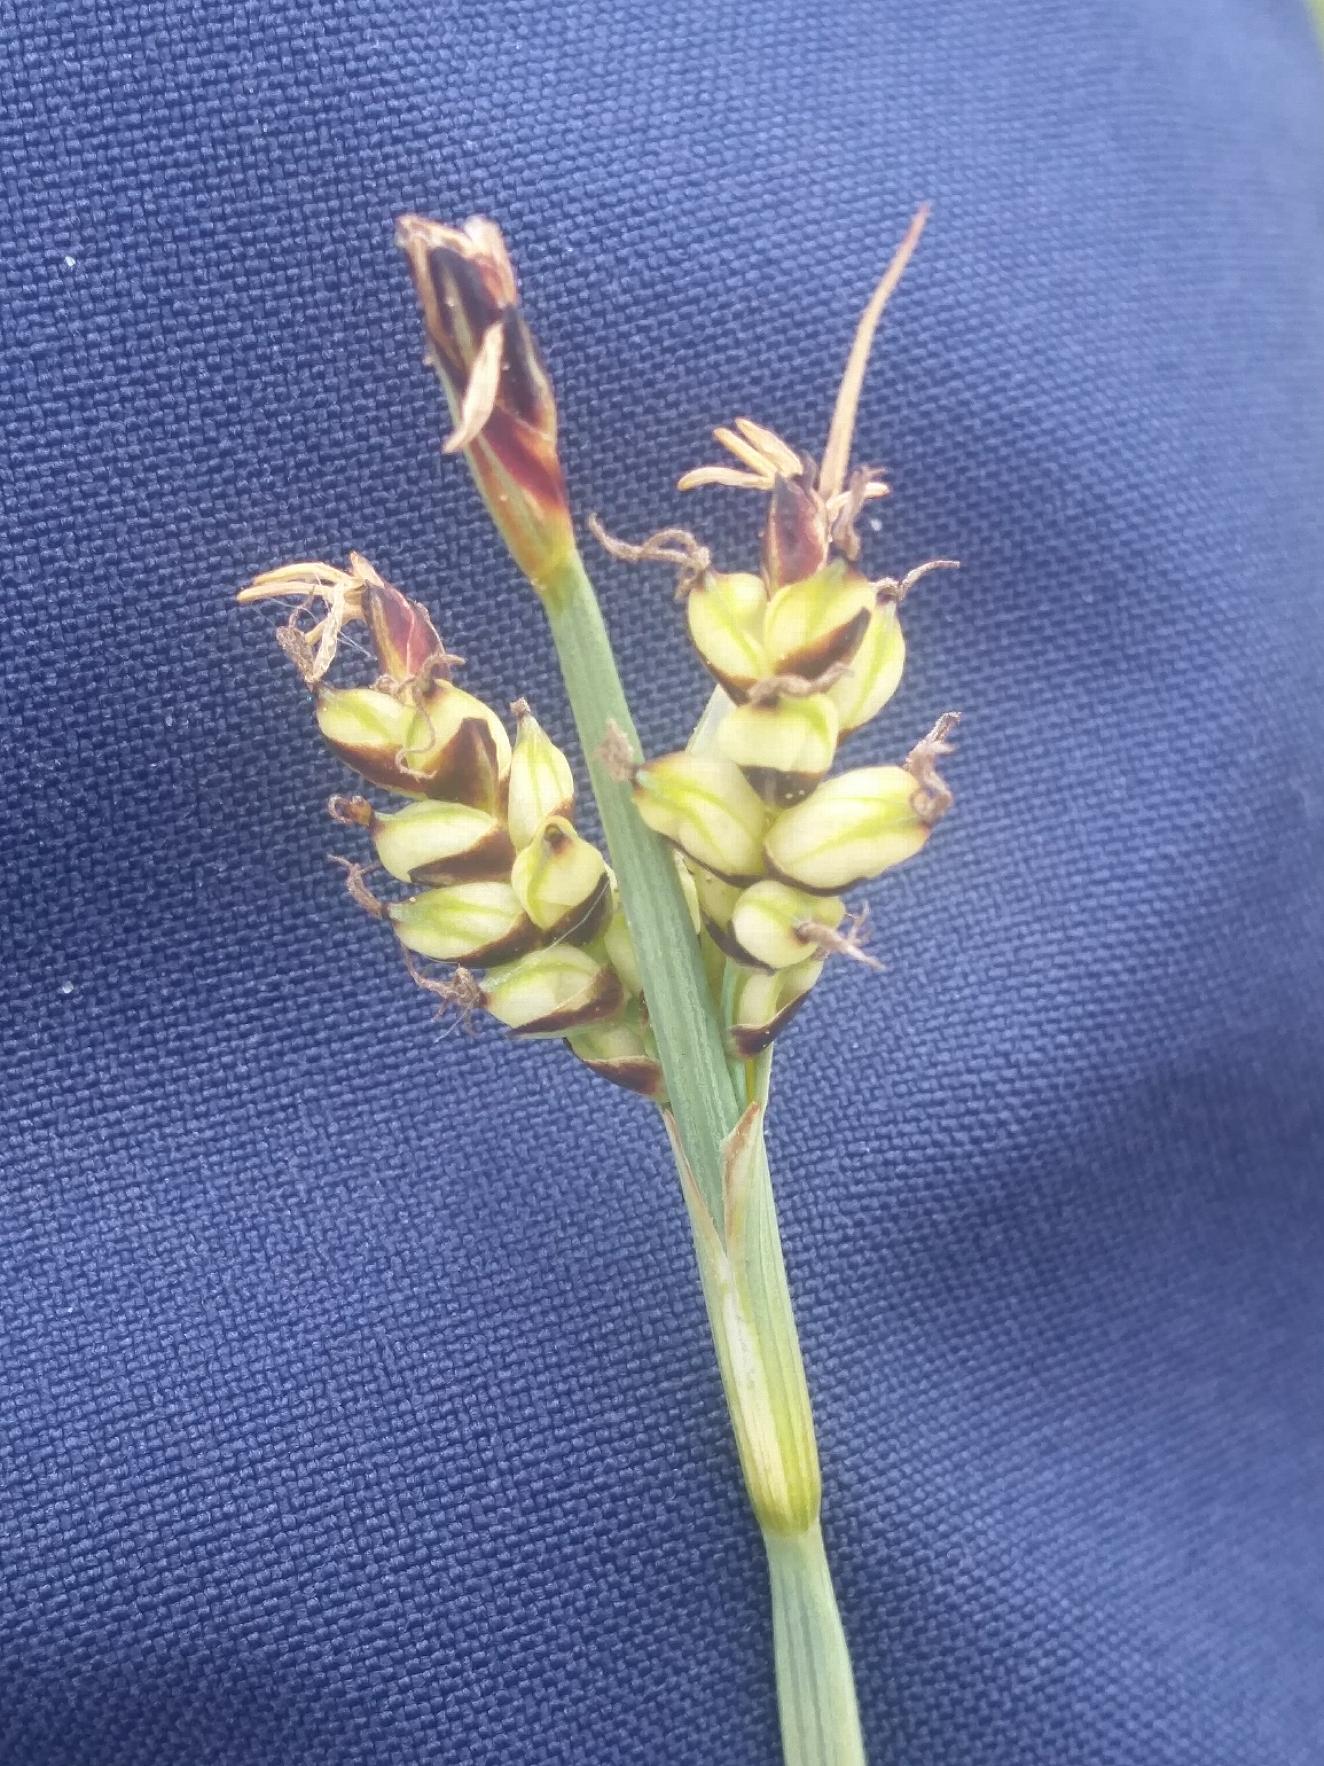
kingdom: Plantae
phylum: Tracheophyta
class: Liliopsida
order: Poales
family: Cyperaceae
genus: Carex
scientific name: Carex panicea
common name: Hirse-star
